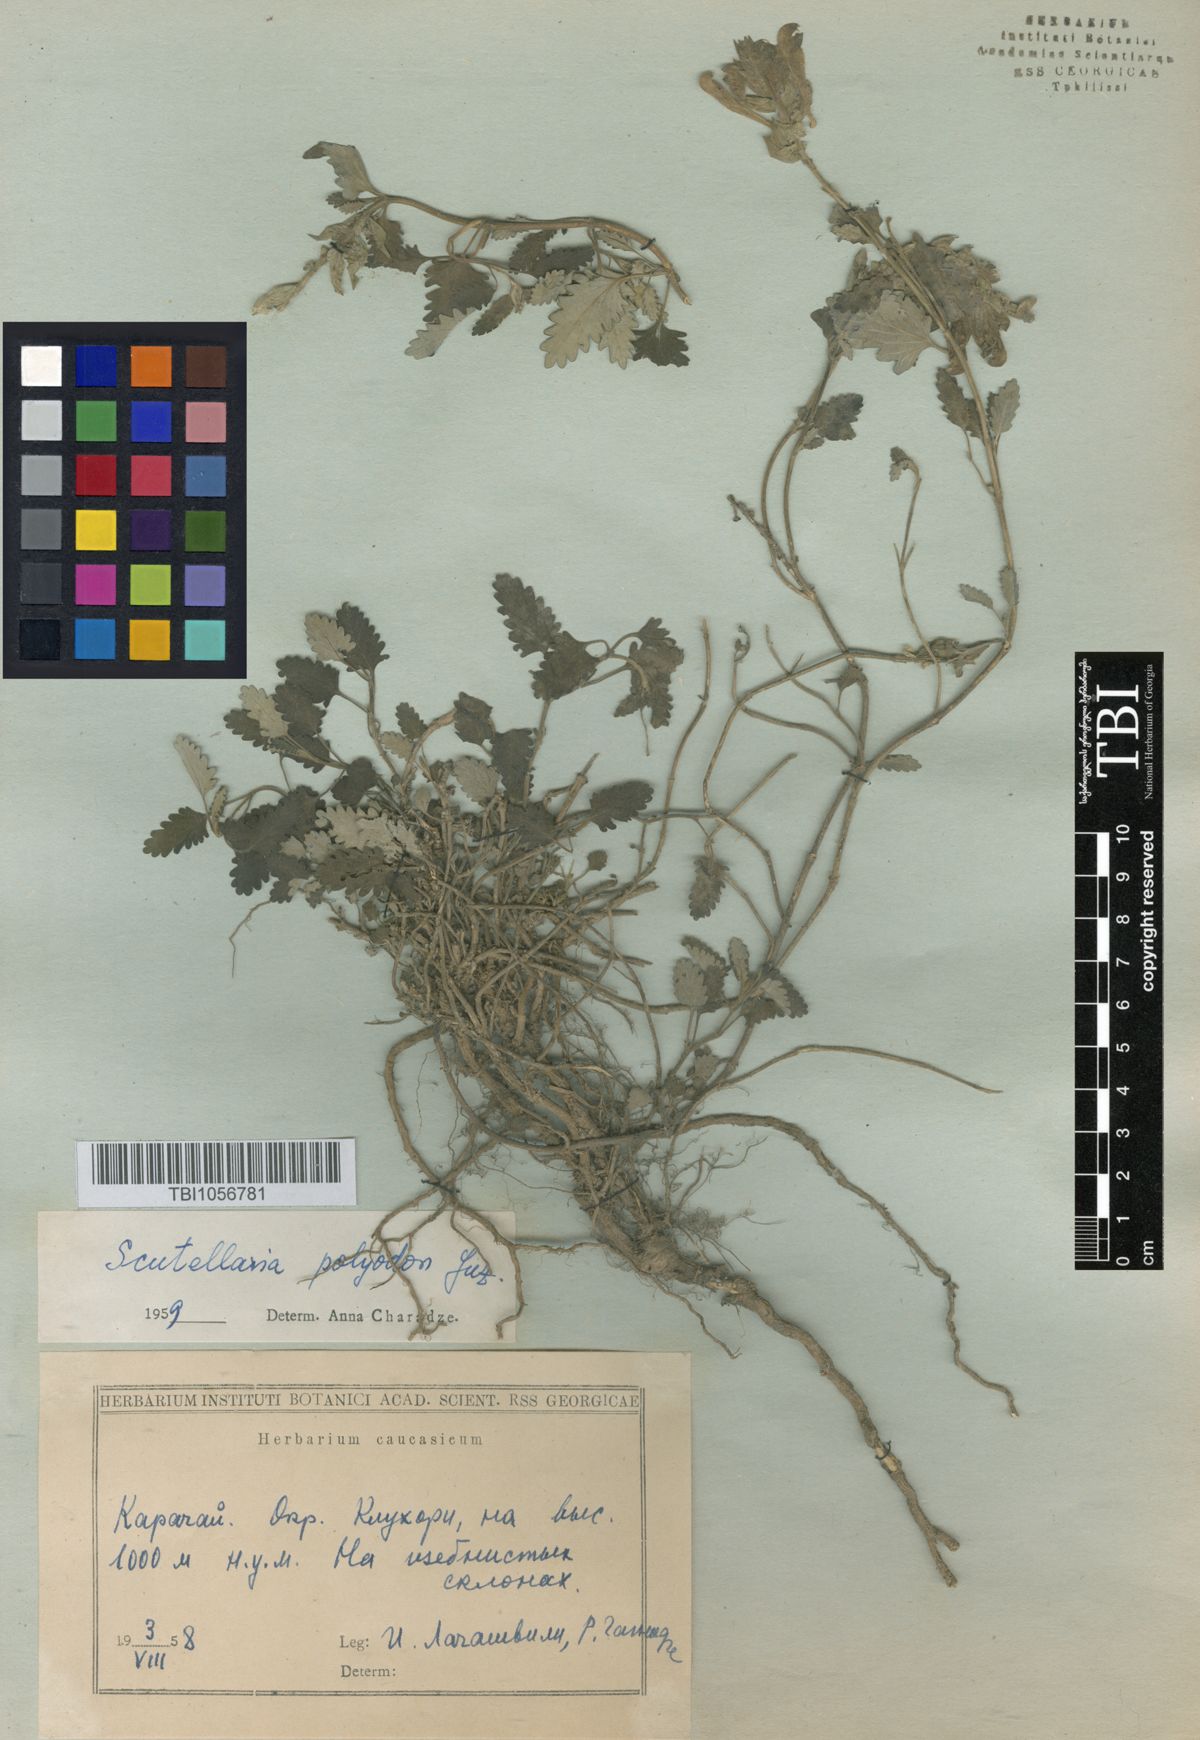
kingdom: Plantae
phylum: Tracheophyta
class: Magnoliopsida
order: Lamiales
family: Lamiaceae
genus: Scutellaria
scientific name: Scutellaria caucasica
